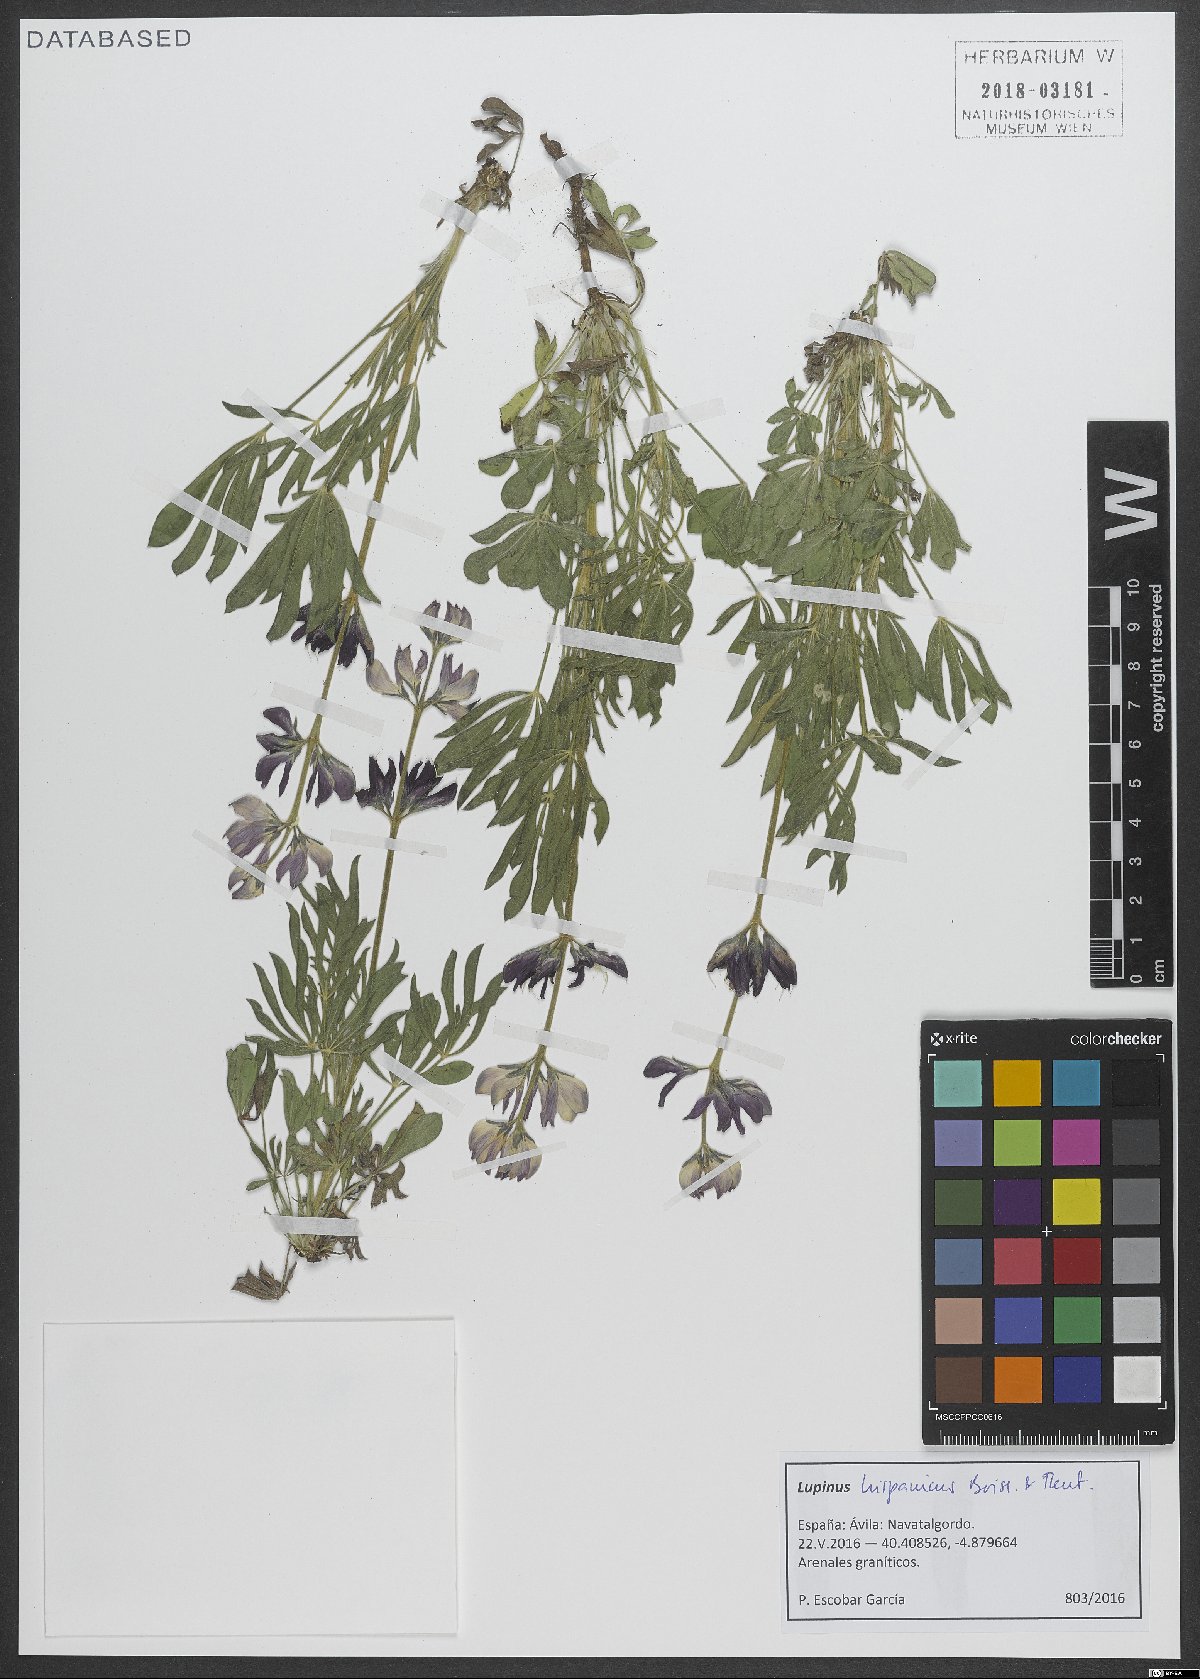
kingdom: Plantae
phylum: Tracheophyta
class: Magnoliopsida
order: Fabales
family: Fabaceae
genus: Lupinus
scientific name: Lupinus hispanicus
